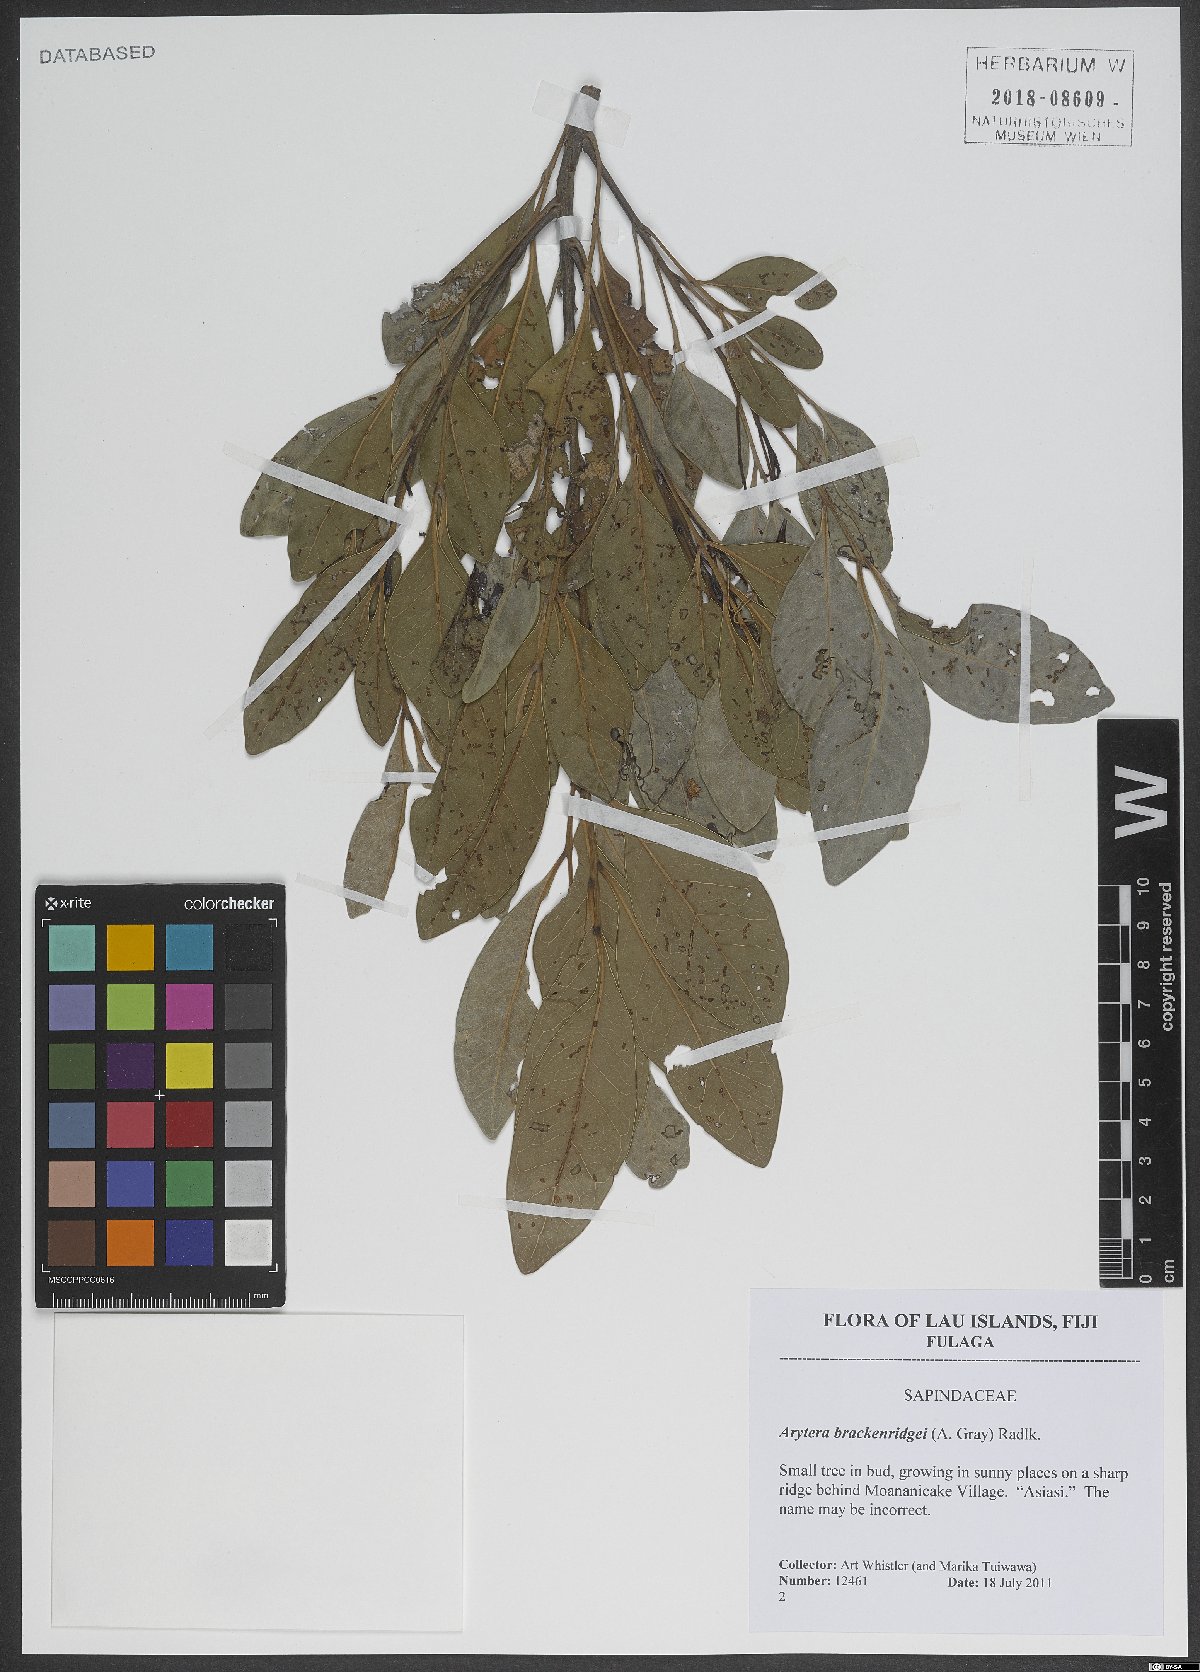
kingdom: Plantae
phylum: Tracheophyta
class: Magnoliopsida
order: Sapindales
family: Sapindaceae
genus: Lepidocupania
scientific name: Lepidocupania brackenridgei
